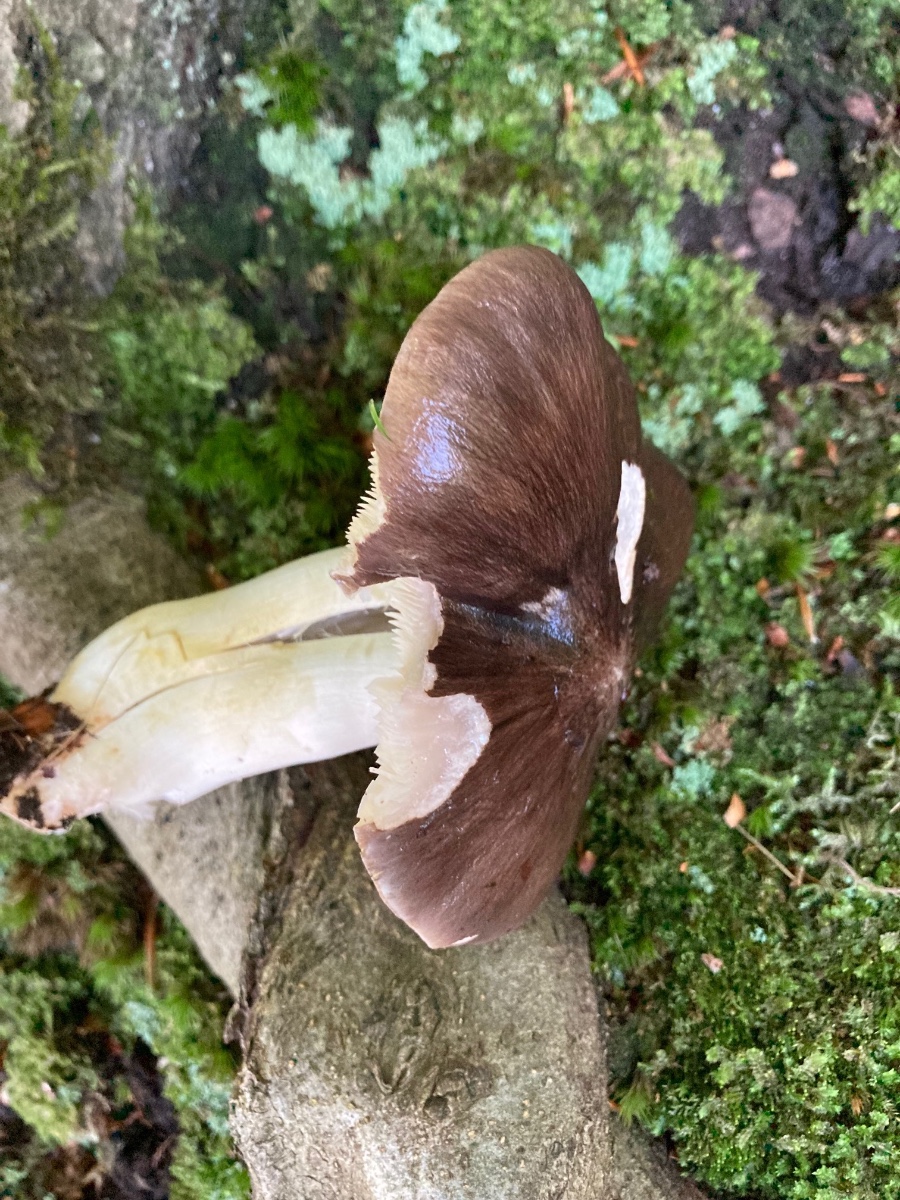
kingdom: Fungi
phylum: Basidiomycota
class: Agaricomycetes
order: Agaricales
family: Tricholomataceae
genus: Tricholoma
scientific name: Tricholoma portentosum
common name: grå ridderhat
